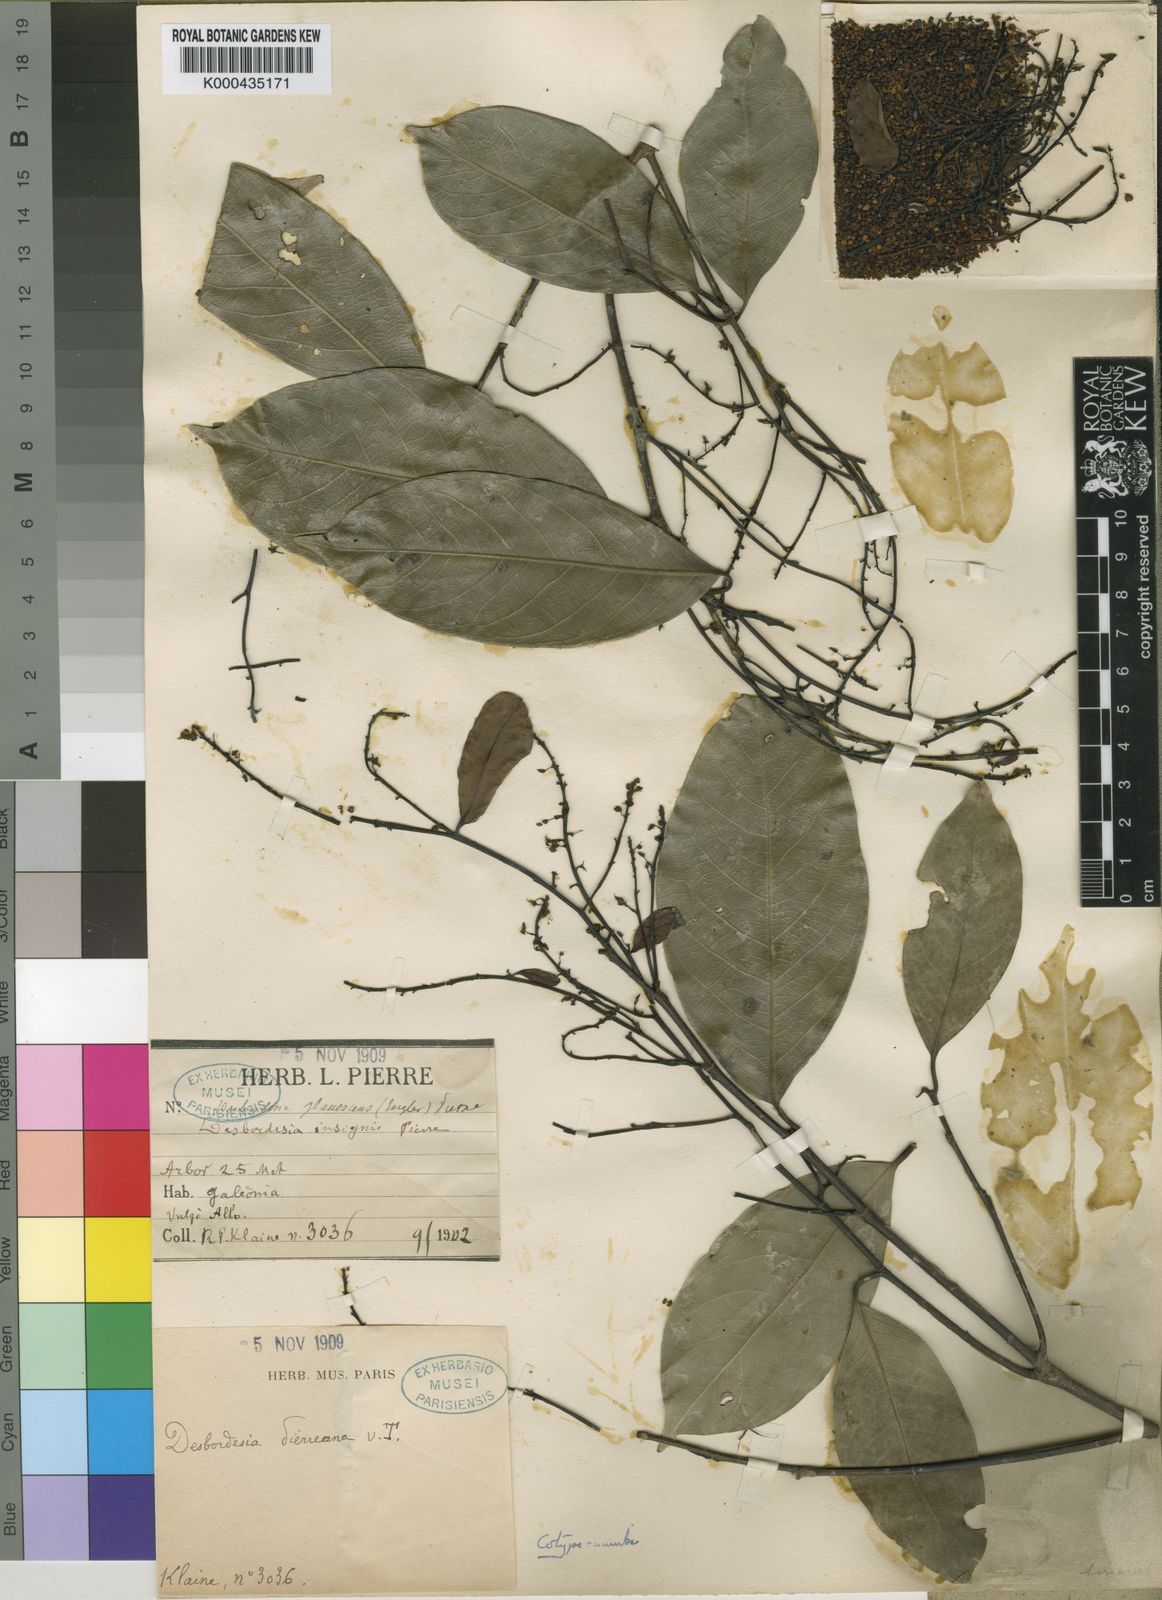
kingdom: Plantae
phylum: Tracheophyta
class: Magnoliopsida
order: Malpighiales
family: Irvingiaceae
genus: Desbordesia
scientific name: Desbordesia glaucescens
